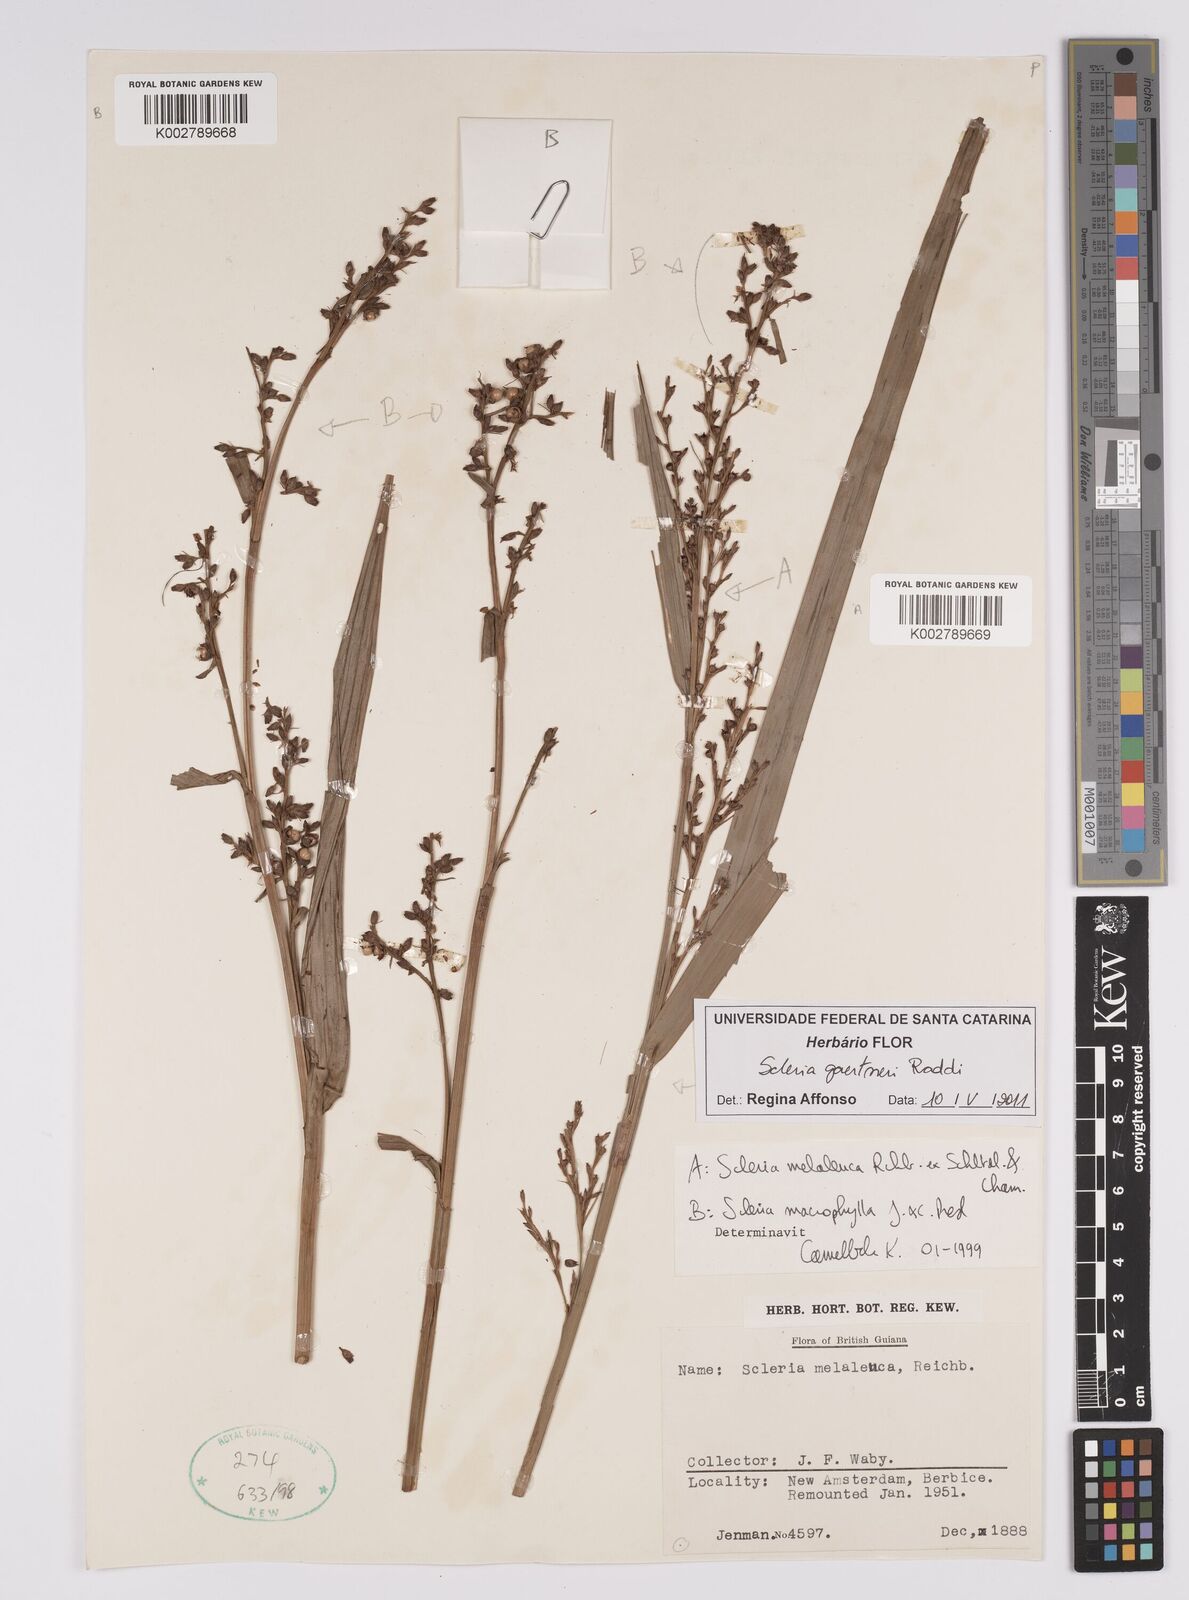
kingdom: Plantae
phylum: Tracheophyta
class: Liliopsida
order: Poales
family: Cyperaceae
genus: Scleria
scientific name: Scleria gaertneri
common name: Cortadera blanca
